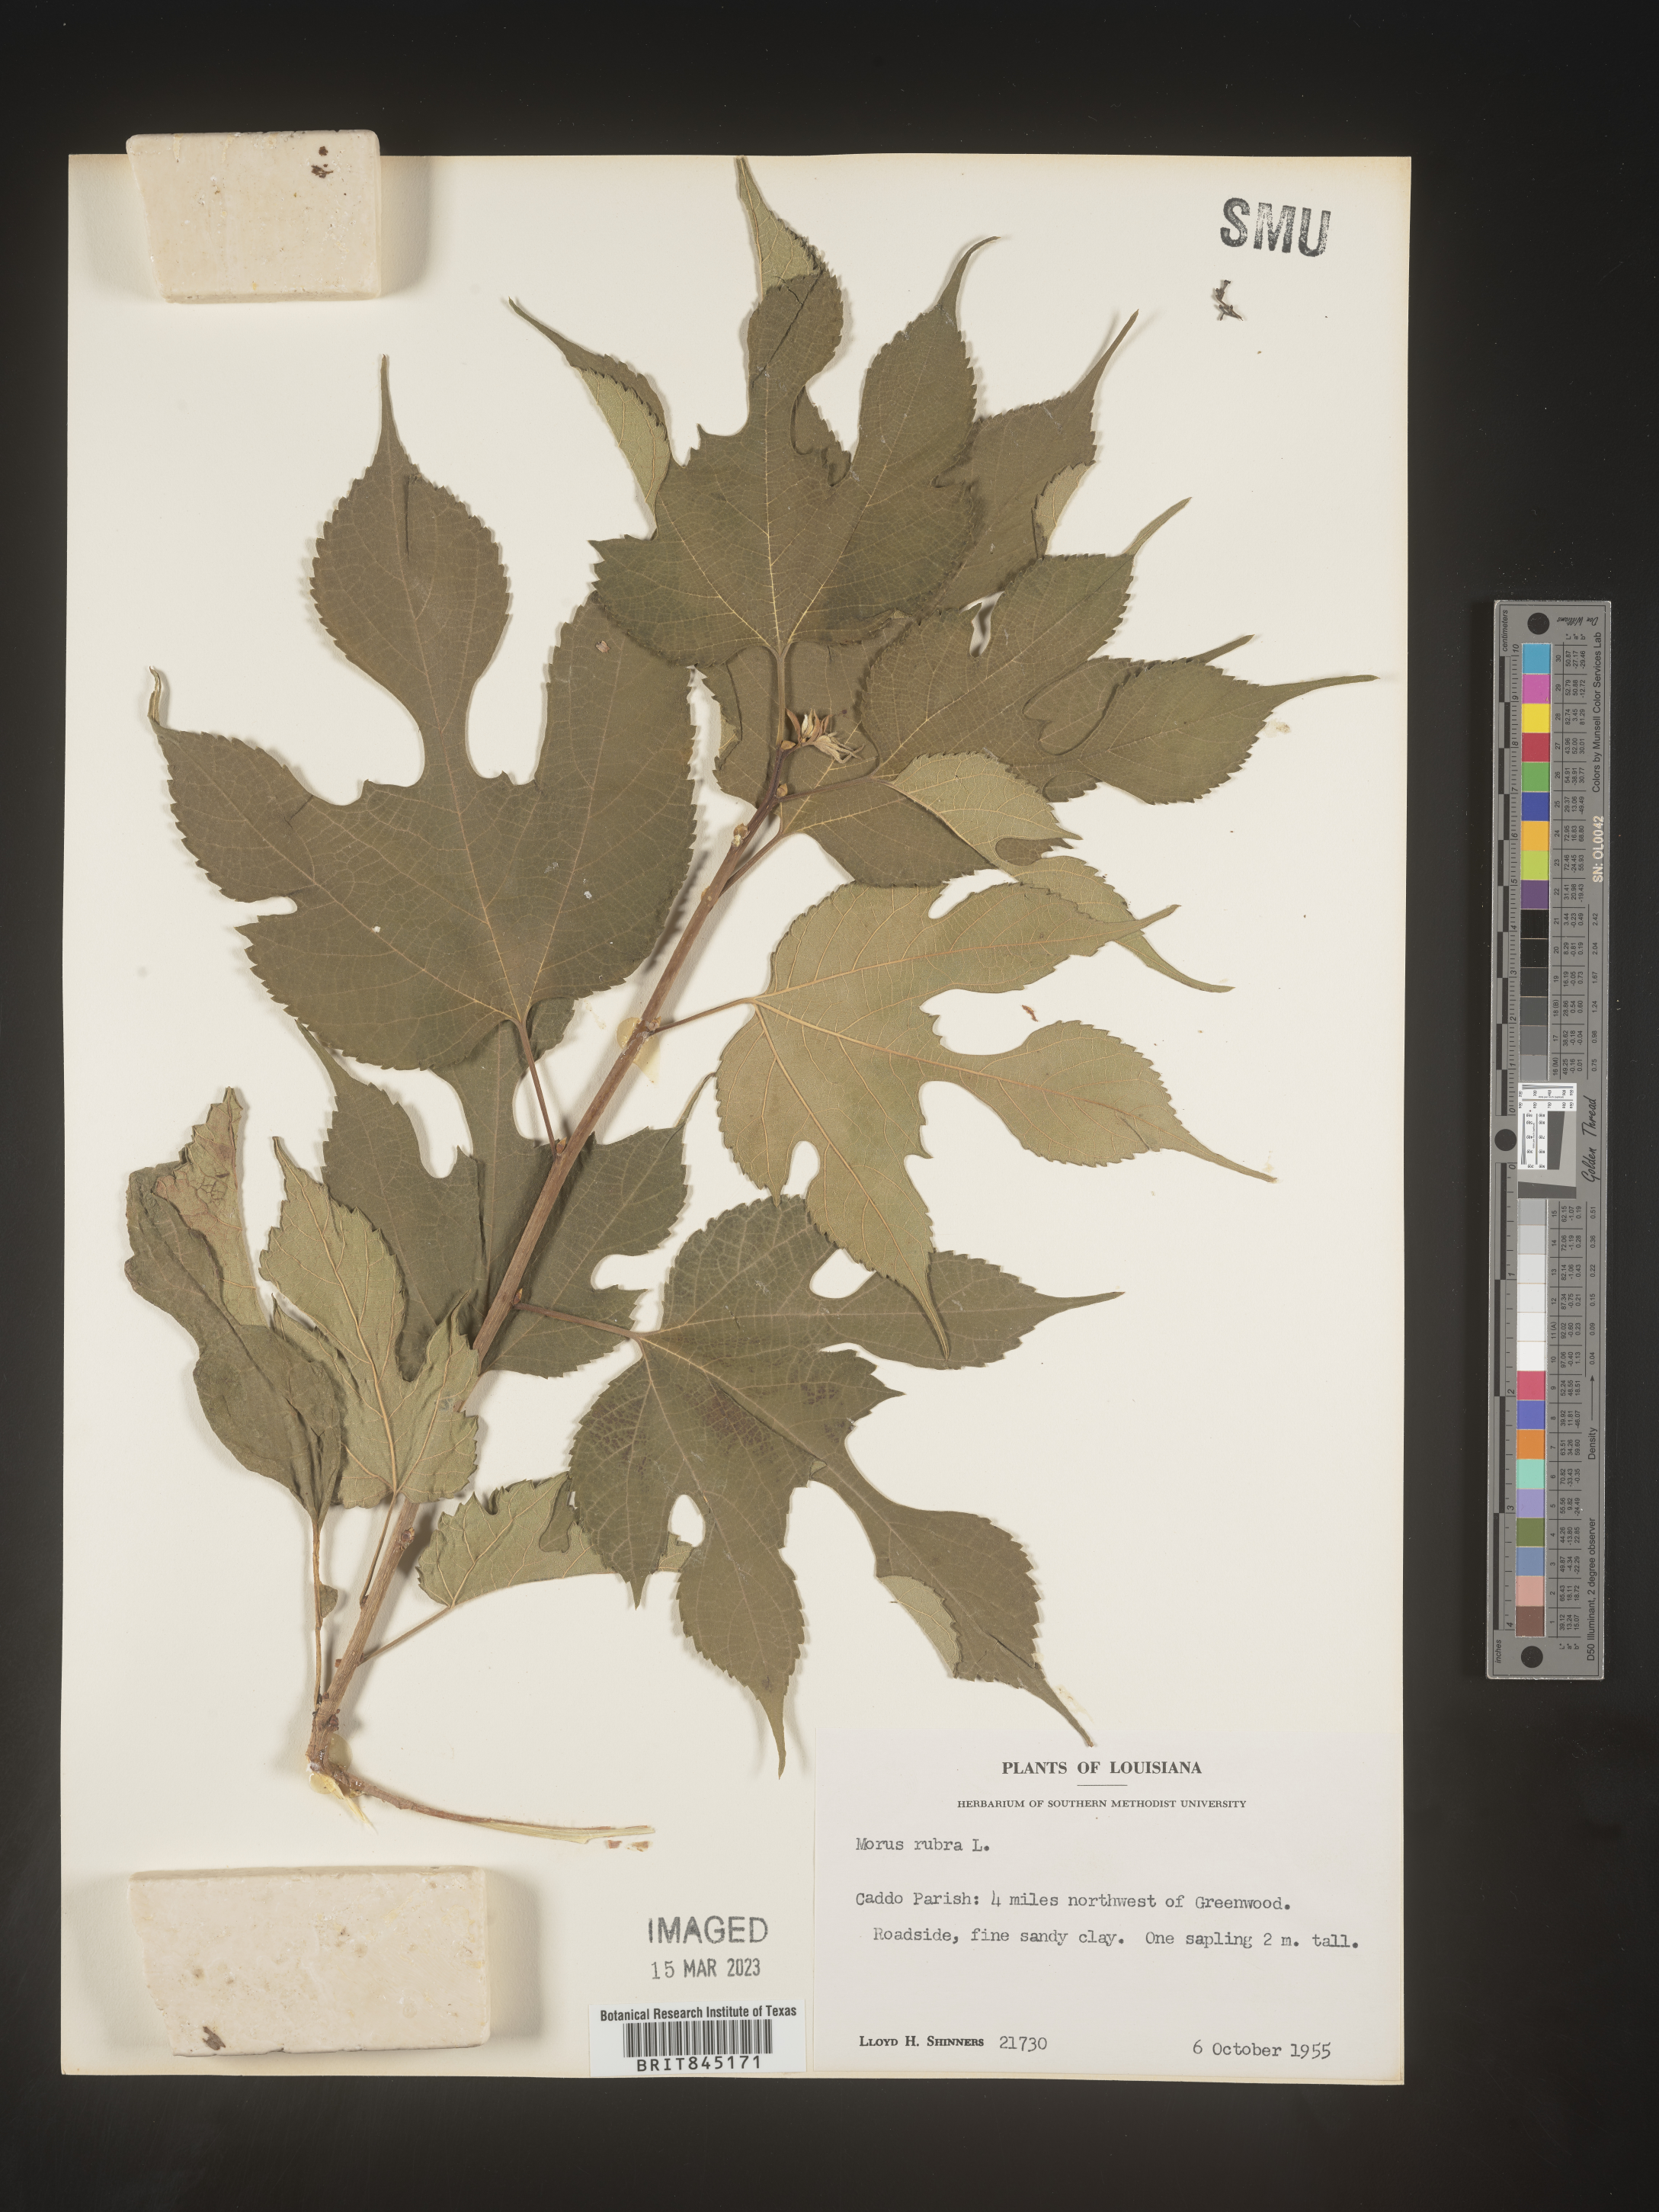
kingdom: Plantae
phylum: Tracheophyta
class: Magnoliopsida
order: Rosales
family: Moraceae
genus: Morus
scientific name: Morus rubra
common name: Red mulberry
